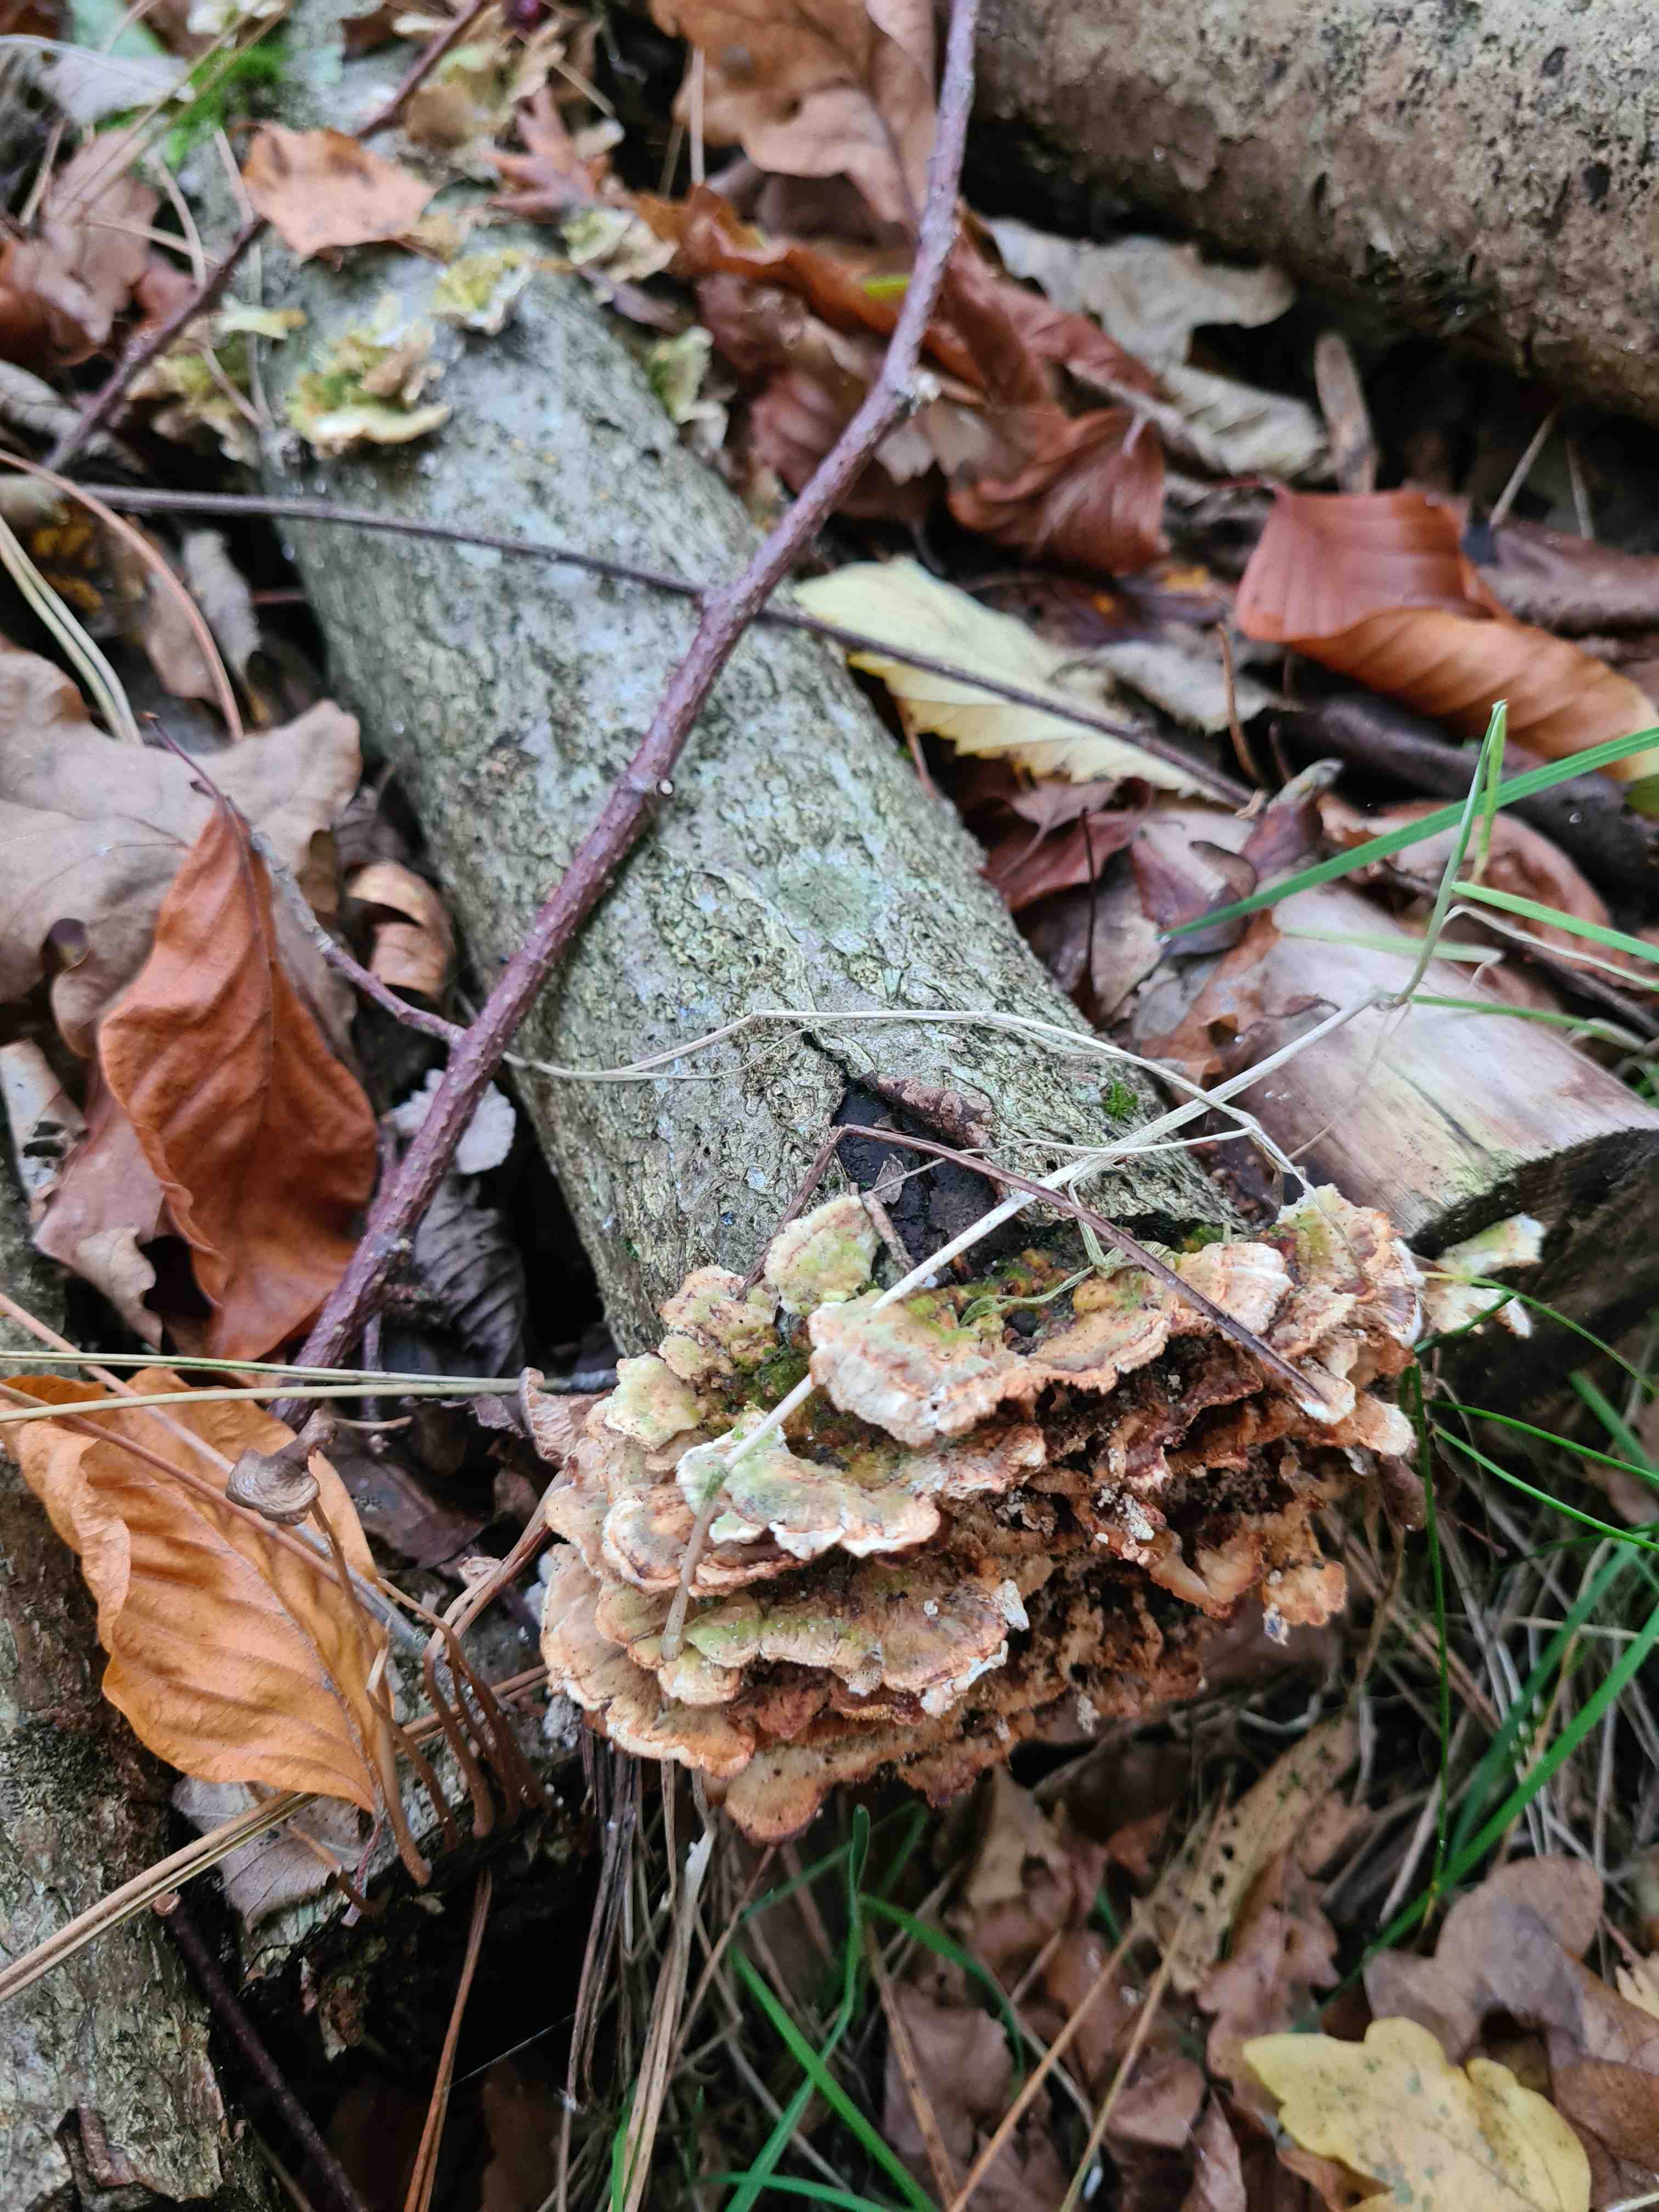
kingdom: Fungi
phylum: Basidiomycota
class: Agaricomycetes
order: Polyporales
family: Polyporaceae
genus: Trametes
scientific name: Trametes
